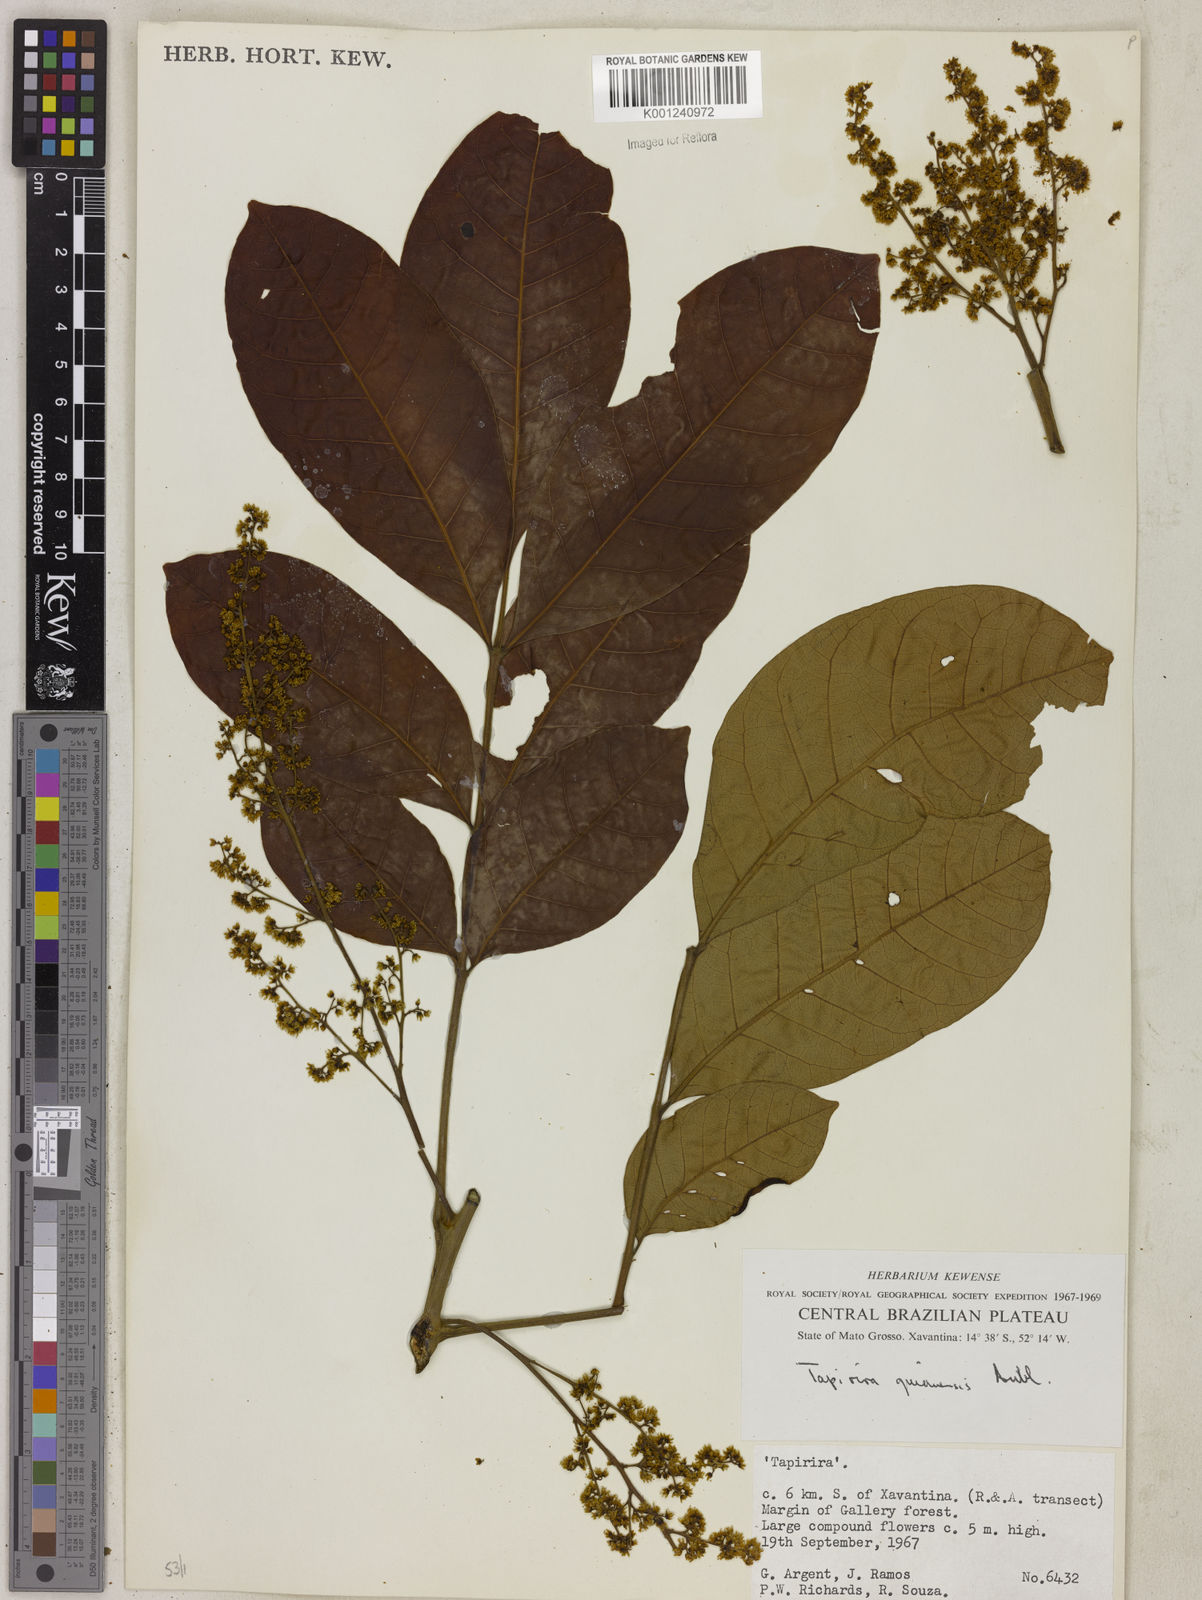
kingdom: Plantae
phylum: Tracheophyta
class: Magnoliopsida
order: Sapindales
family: Anacardiaceae
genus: Tapirira
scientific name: Tapirira guianensis
